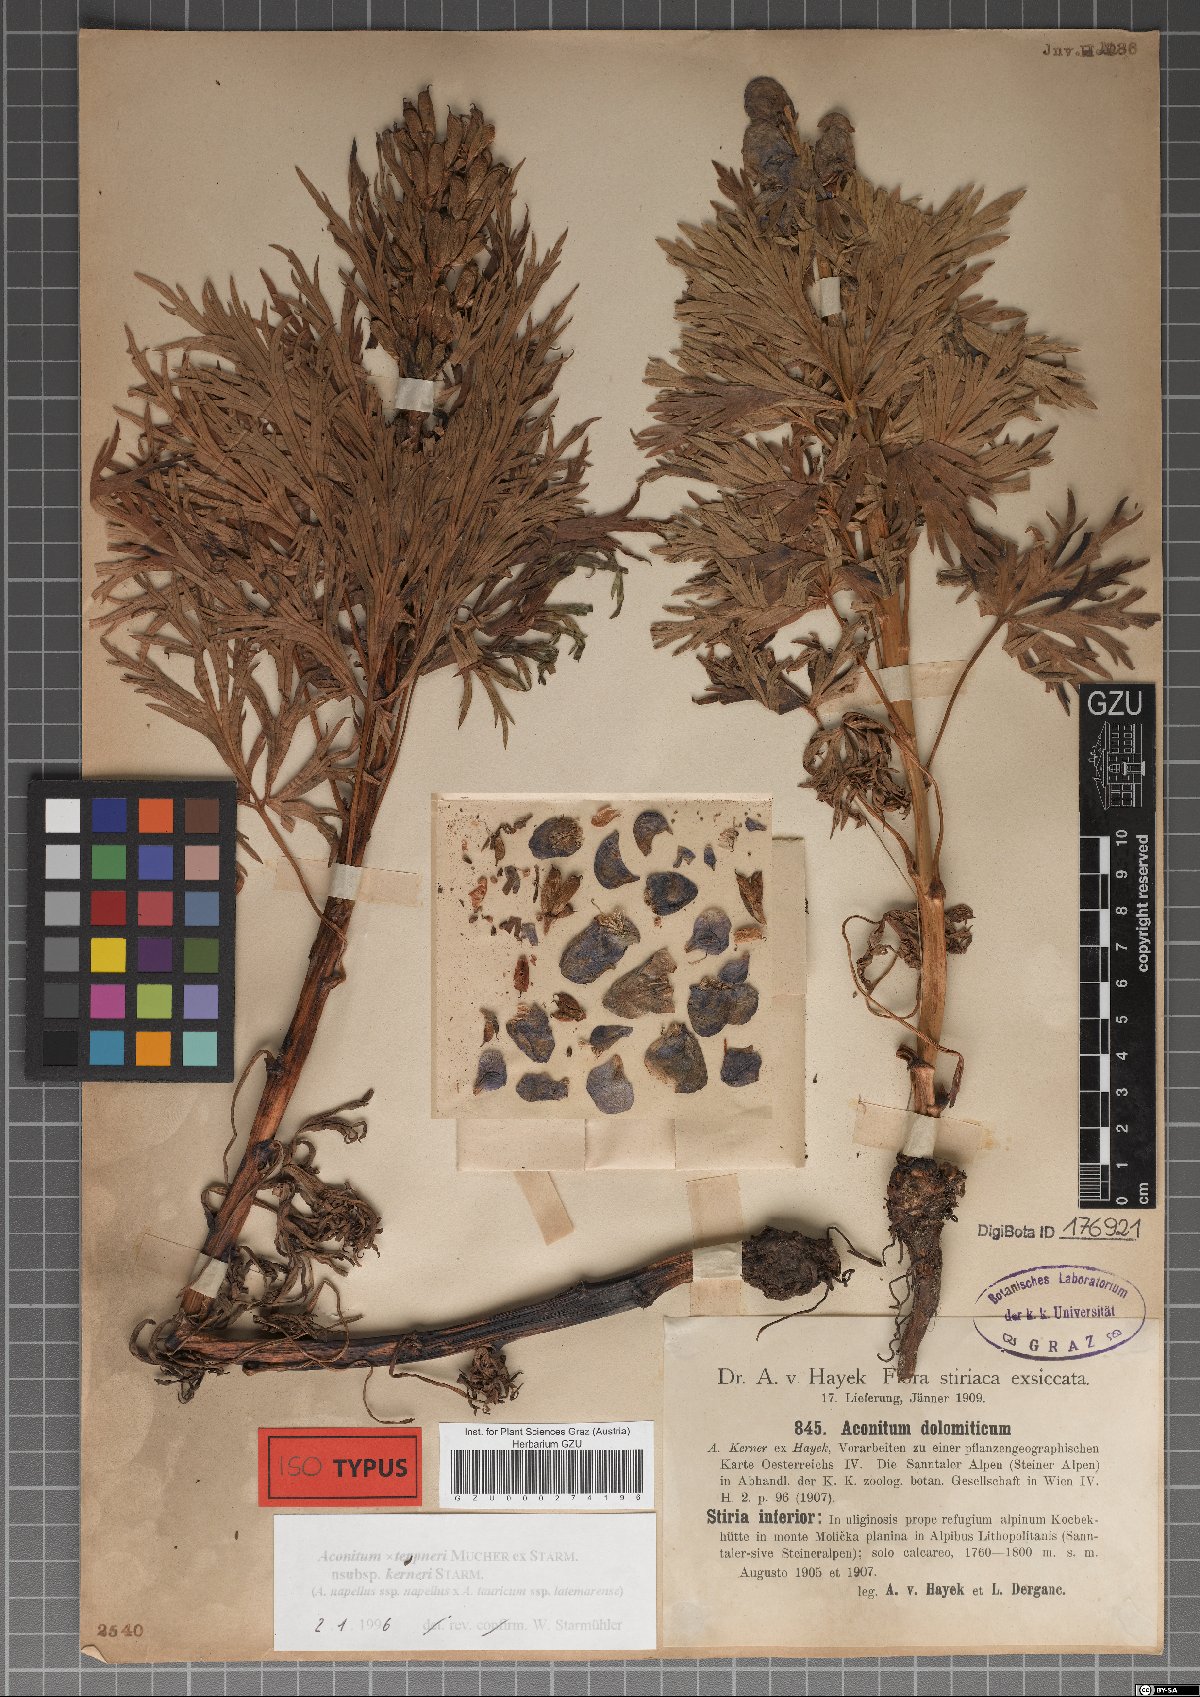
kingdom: Plantae
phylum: Tracheophyta
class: Magnoliopsida
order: Ranunculales
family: Ranunculaceae
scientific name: Ranunculaceae
